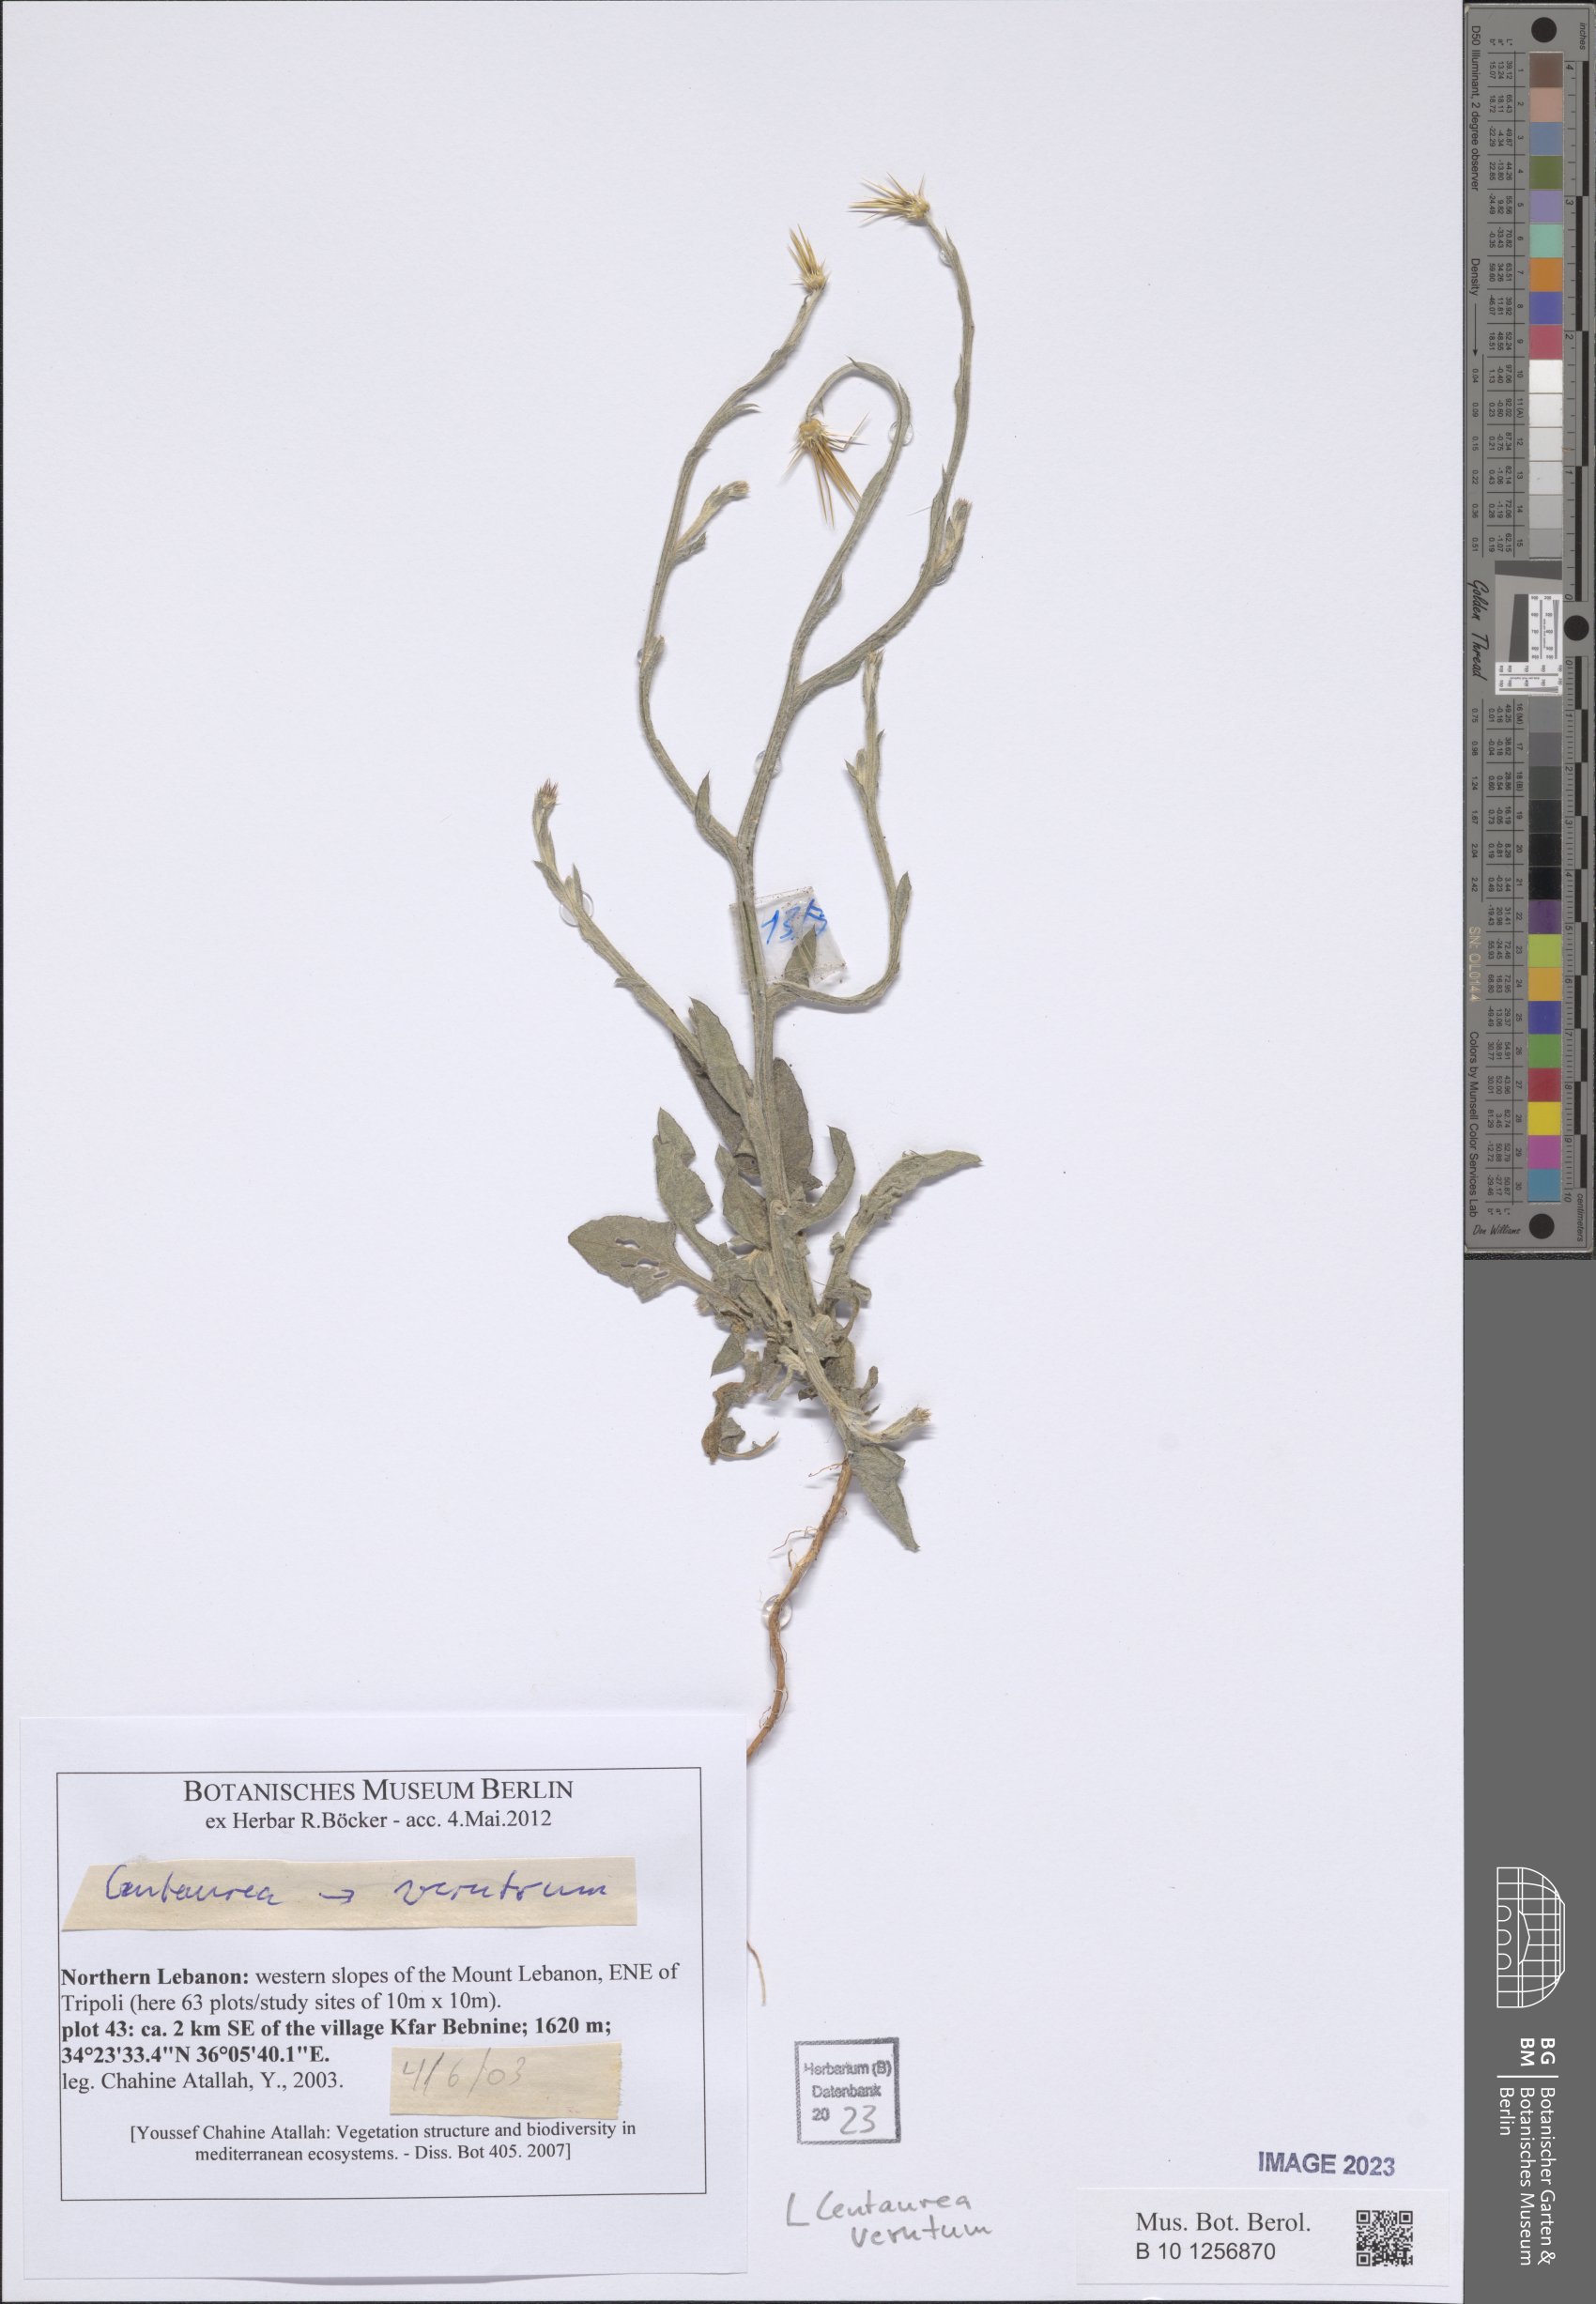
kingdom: Plantae
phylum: Tracheophyta
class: Magnoliopsida
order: Asterales
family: Asteraceae
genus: Centaurea
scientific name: Centaurea verutum
